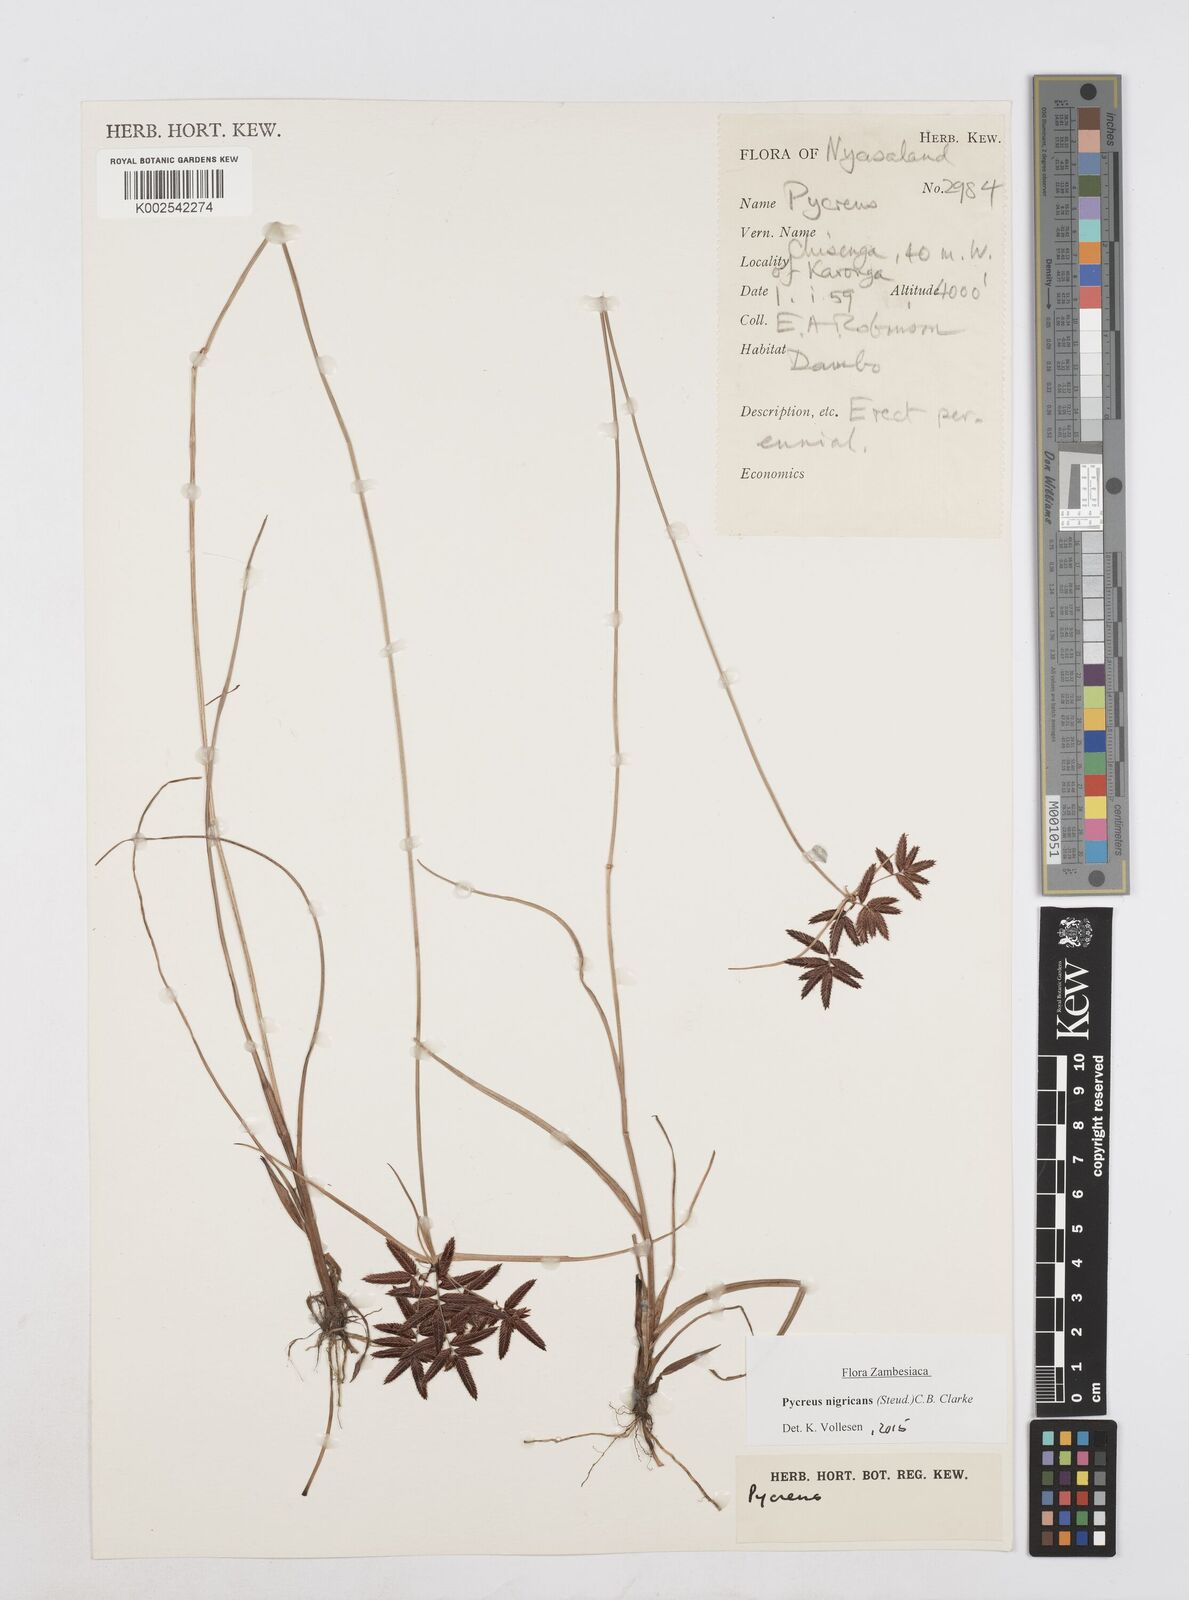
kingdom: Plantae
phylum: Tracheophyta
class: Liliopsida
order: Poales
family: Cyperaceae
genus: Cyperus
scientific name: Cyperus nigricans
